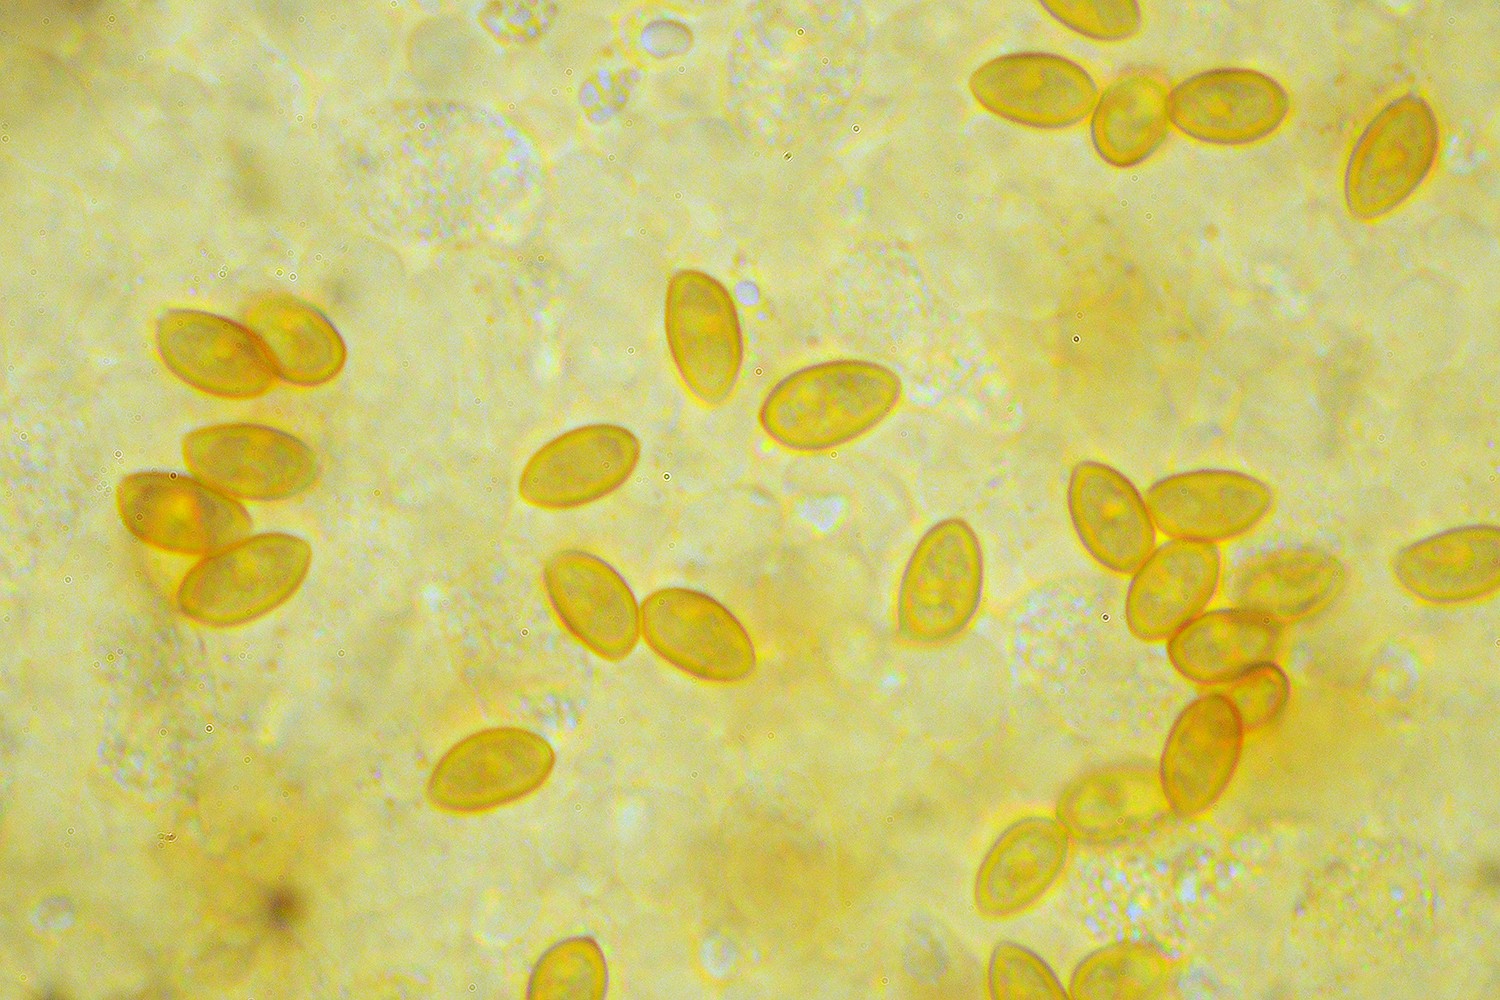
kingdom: Fungi
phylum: Basidiomycota
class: Agaricomycetes
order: Agaricales
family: Hymenogastraceae
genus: Galerina
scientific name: Galerina
